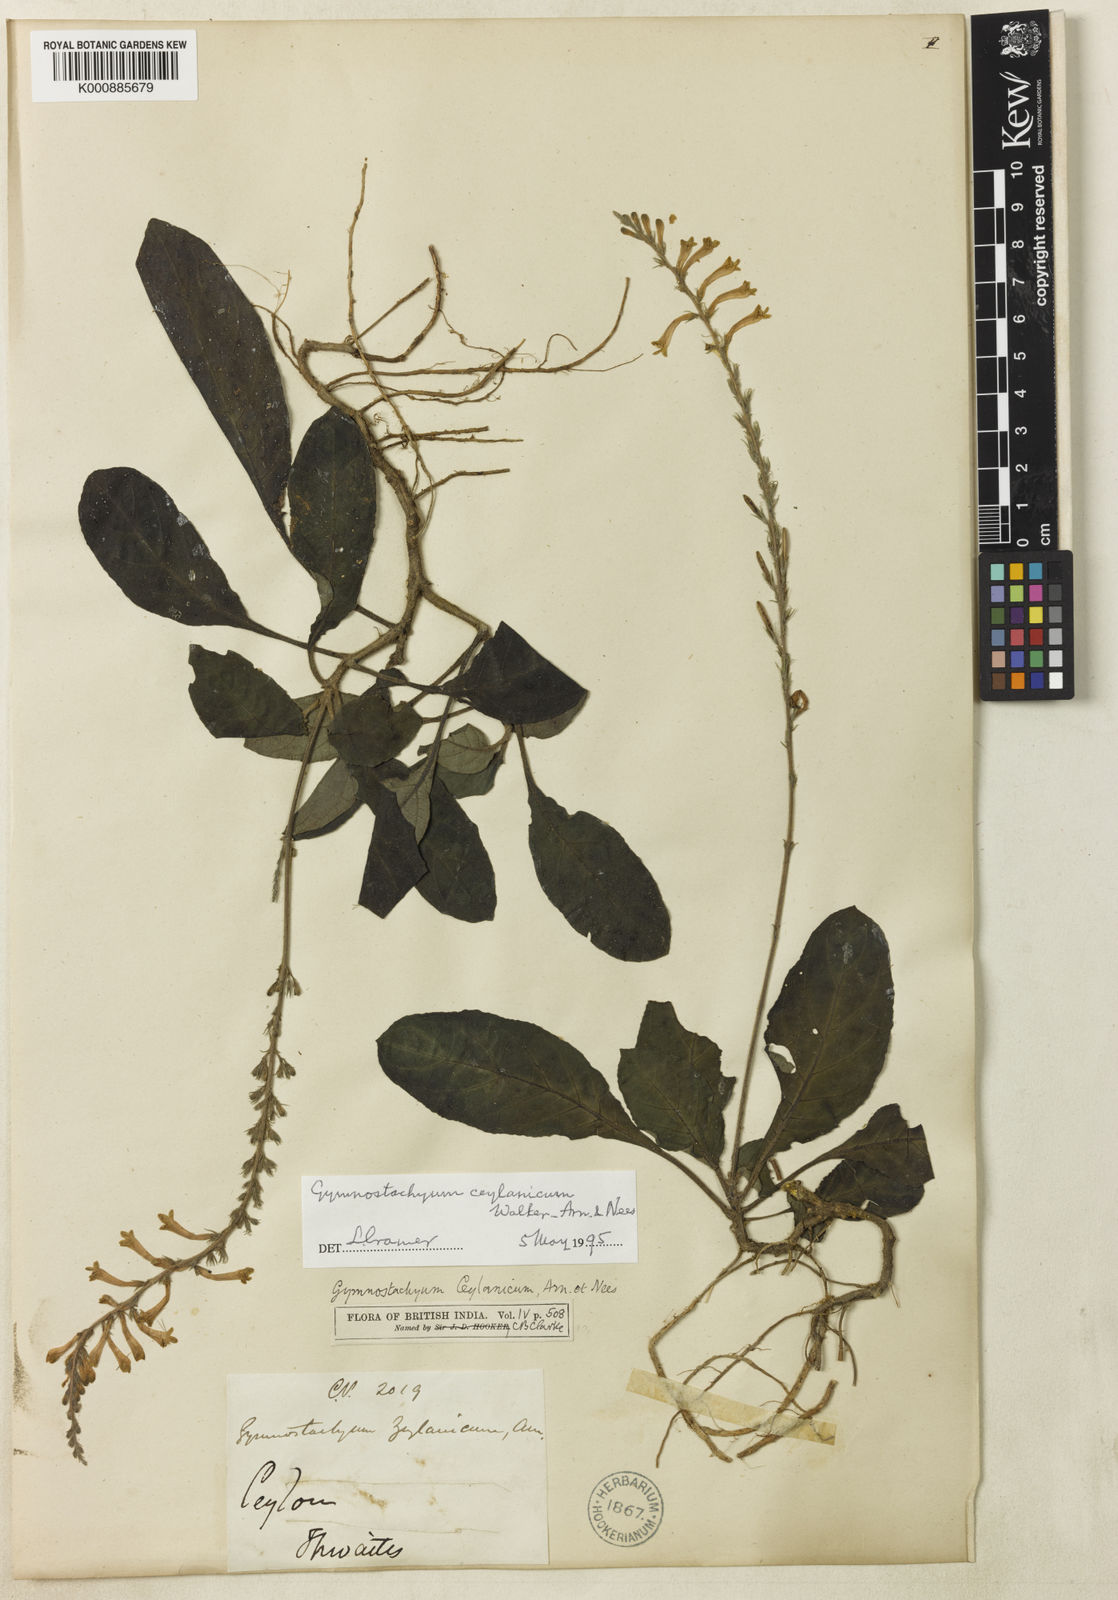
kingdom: Plantae
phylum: Tracheophyta
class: Magnoliopsida
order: Lamiales
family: Acanthaceae
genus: Gymnostachyum
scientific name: Gymnostachyum ceylanicum
